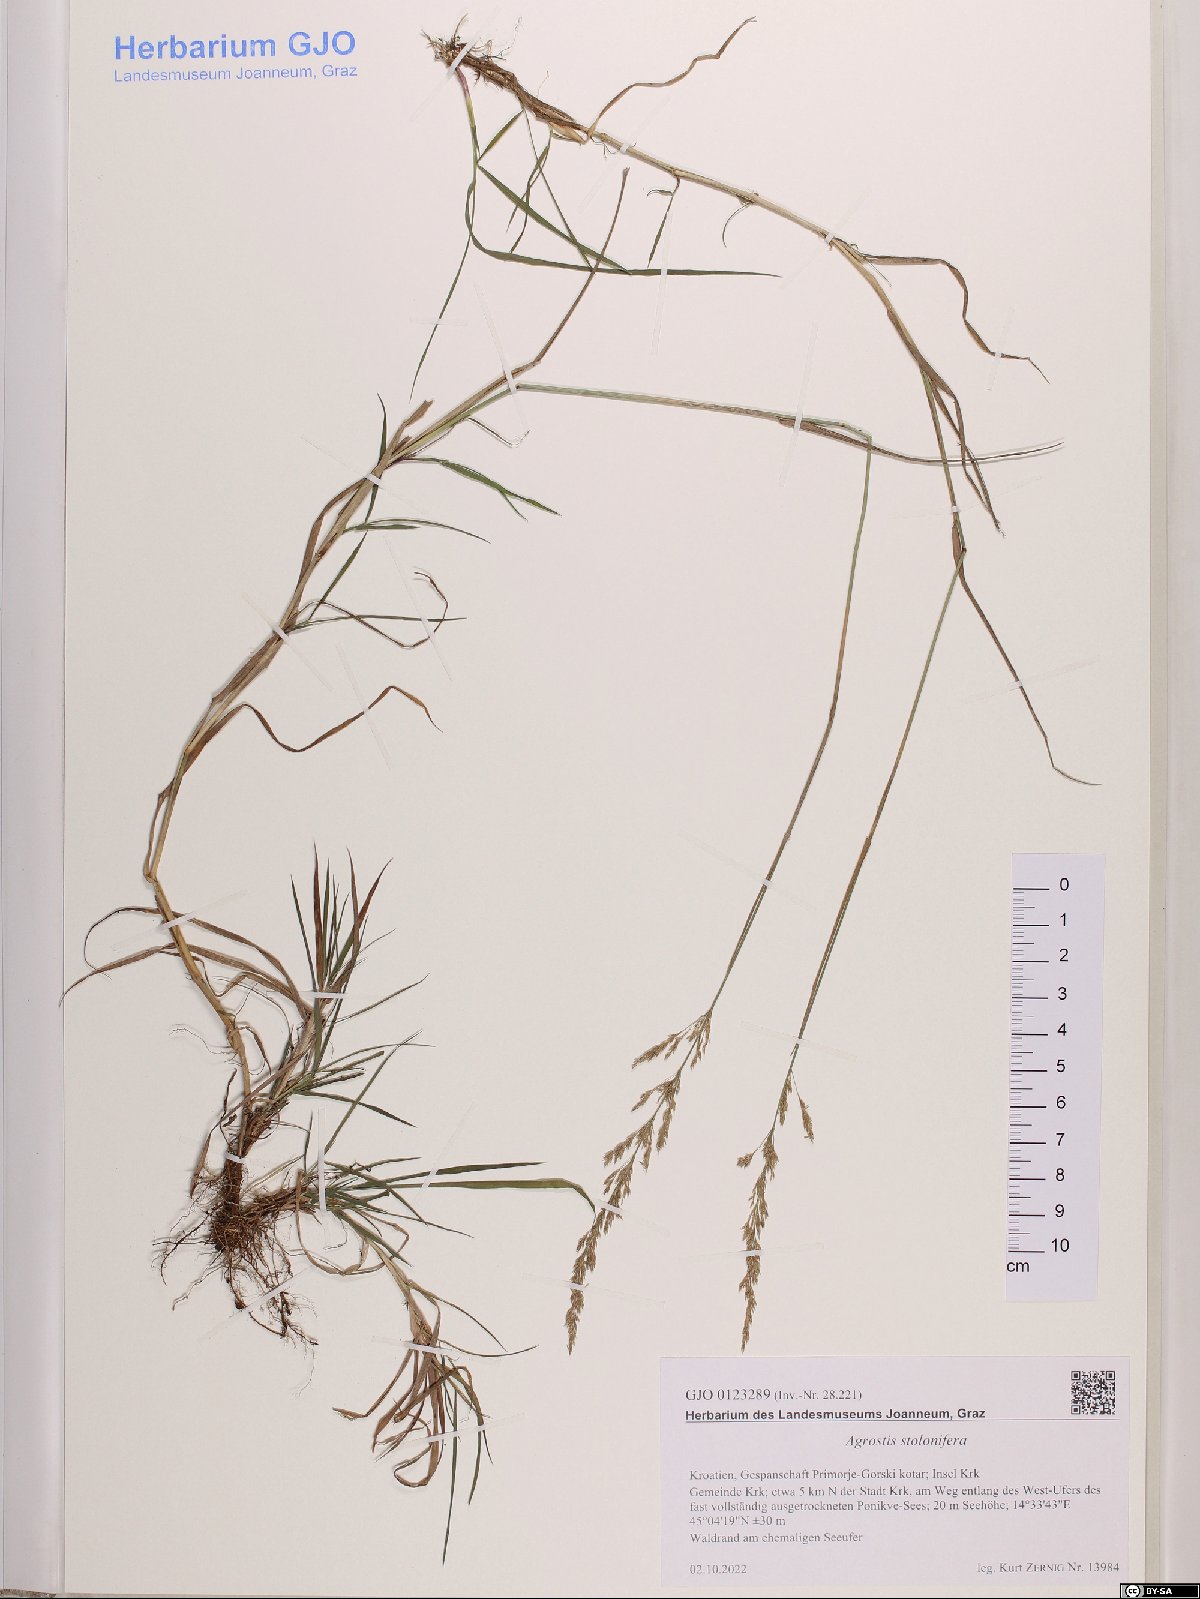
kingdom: Plantae
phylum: Tracheophyta
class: Liliopsida
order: Poales
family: Poaceae
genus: Agrostis
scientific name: Agrostis stolonifera
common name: Creeping bentgrass
